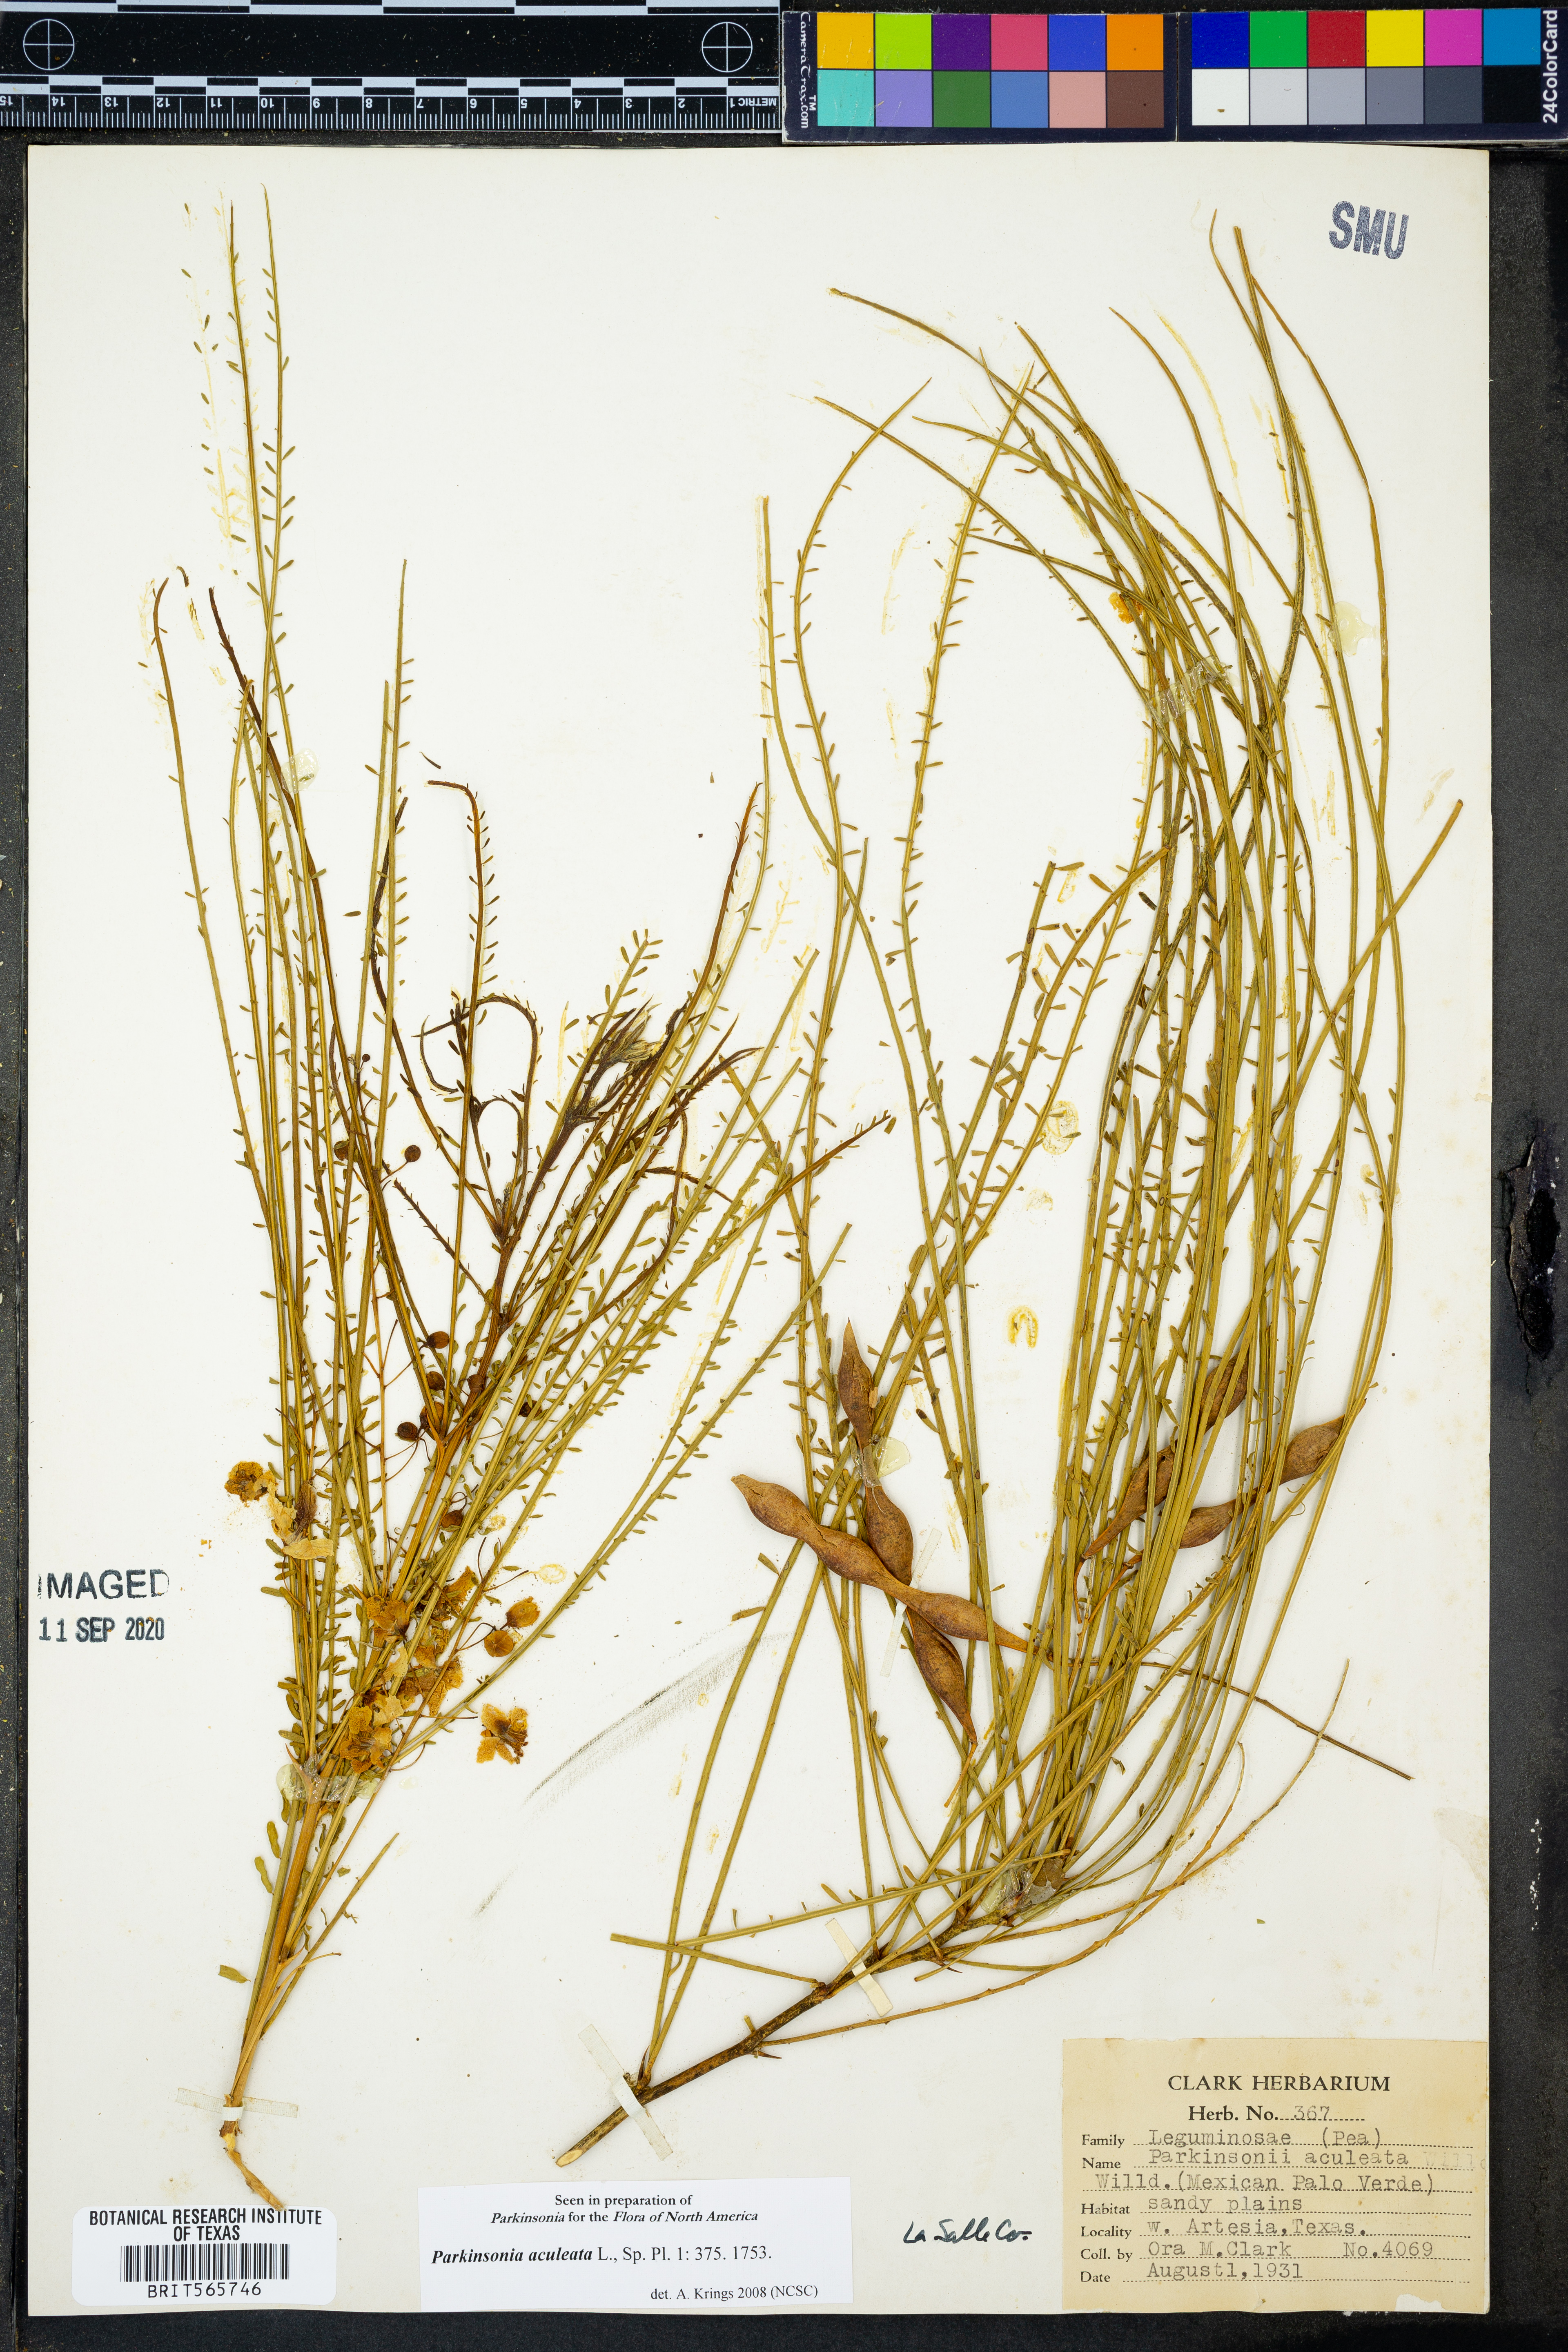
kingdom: Plantae
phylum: Tracheophyta
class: Magnoliopsida
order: Fabales
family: Fabaceae
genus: Parkinsonia
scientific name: Parkinsonia aculeata
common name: Jerusalem thorn
